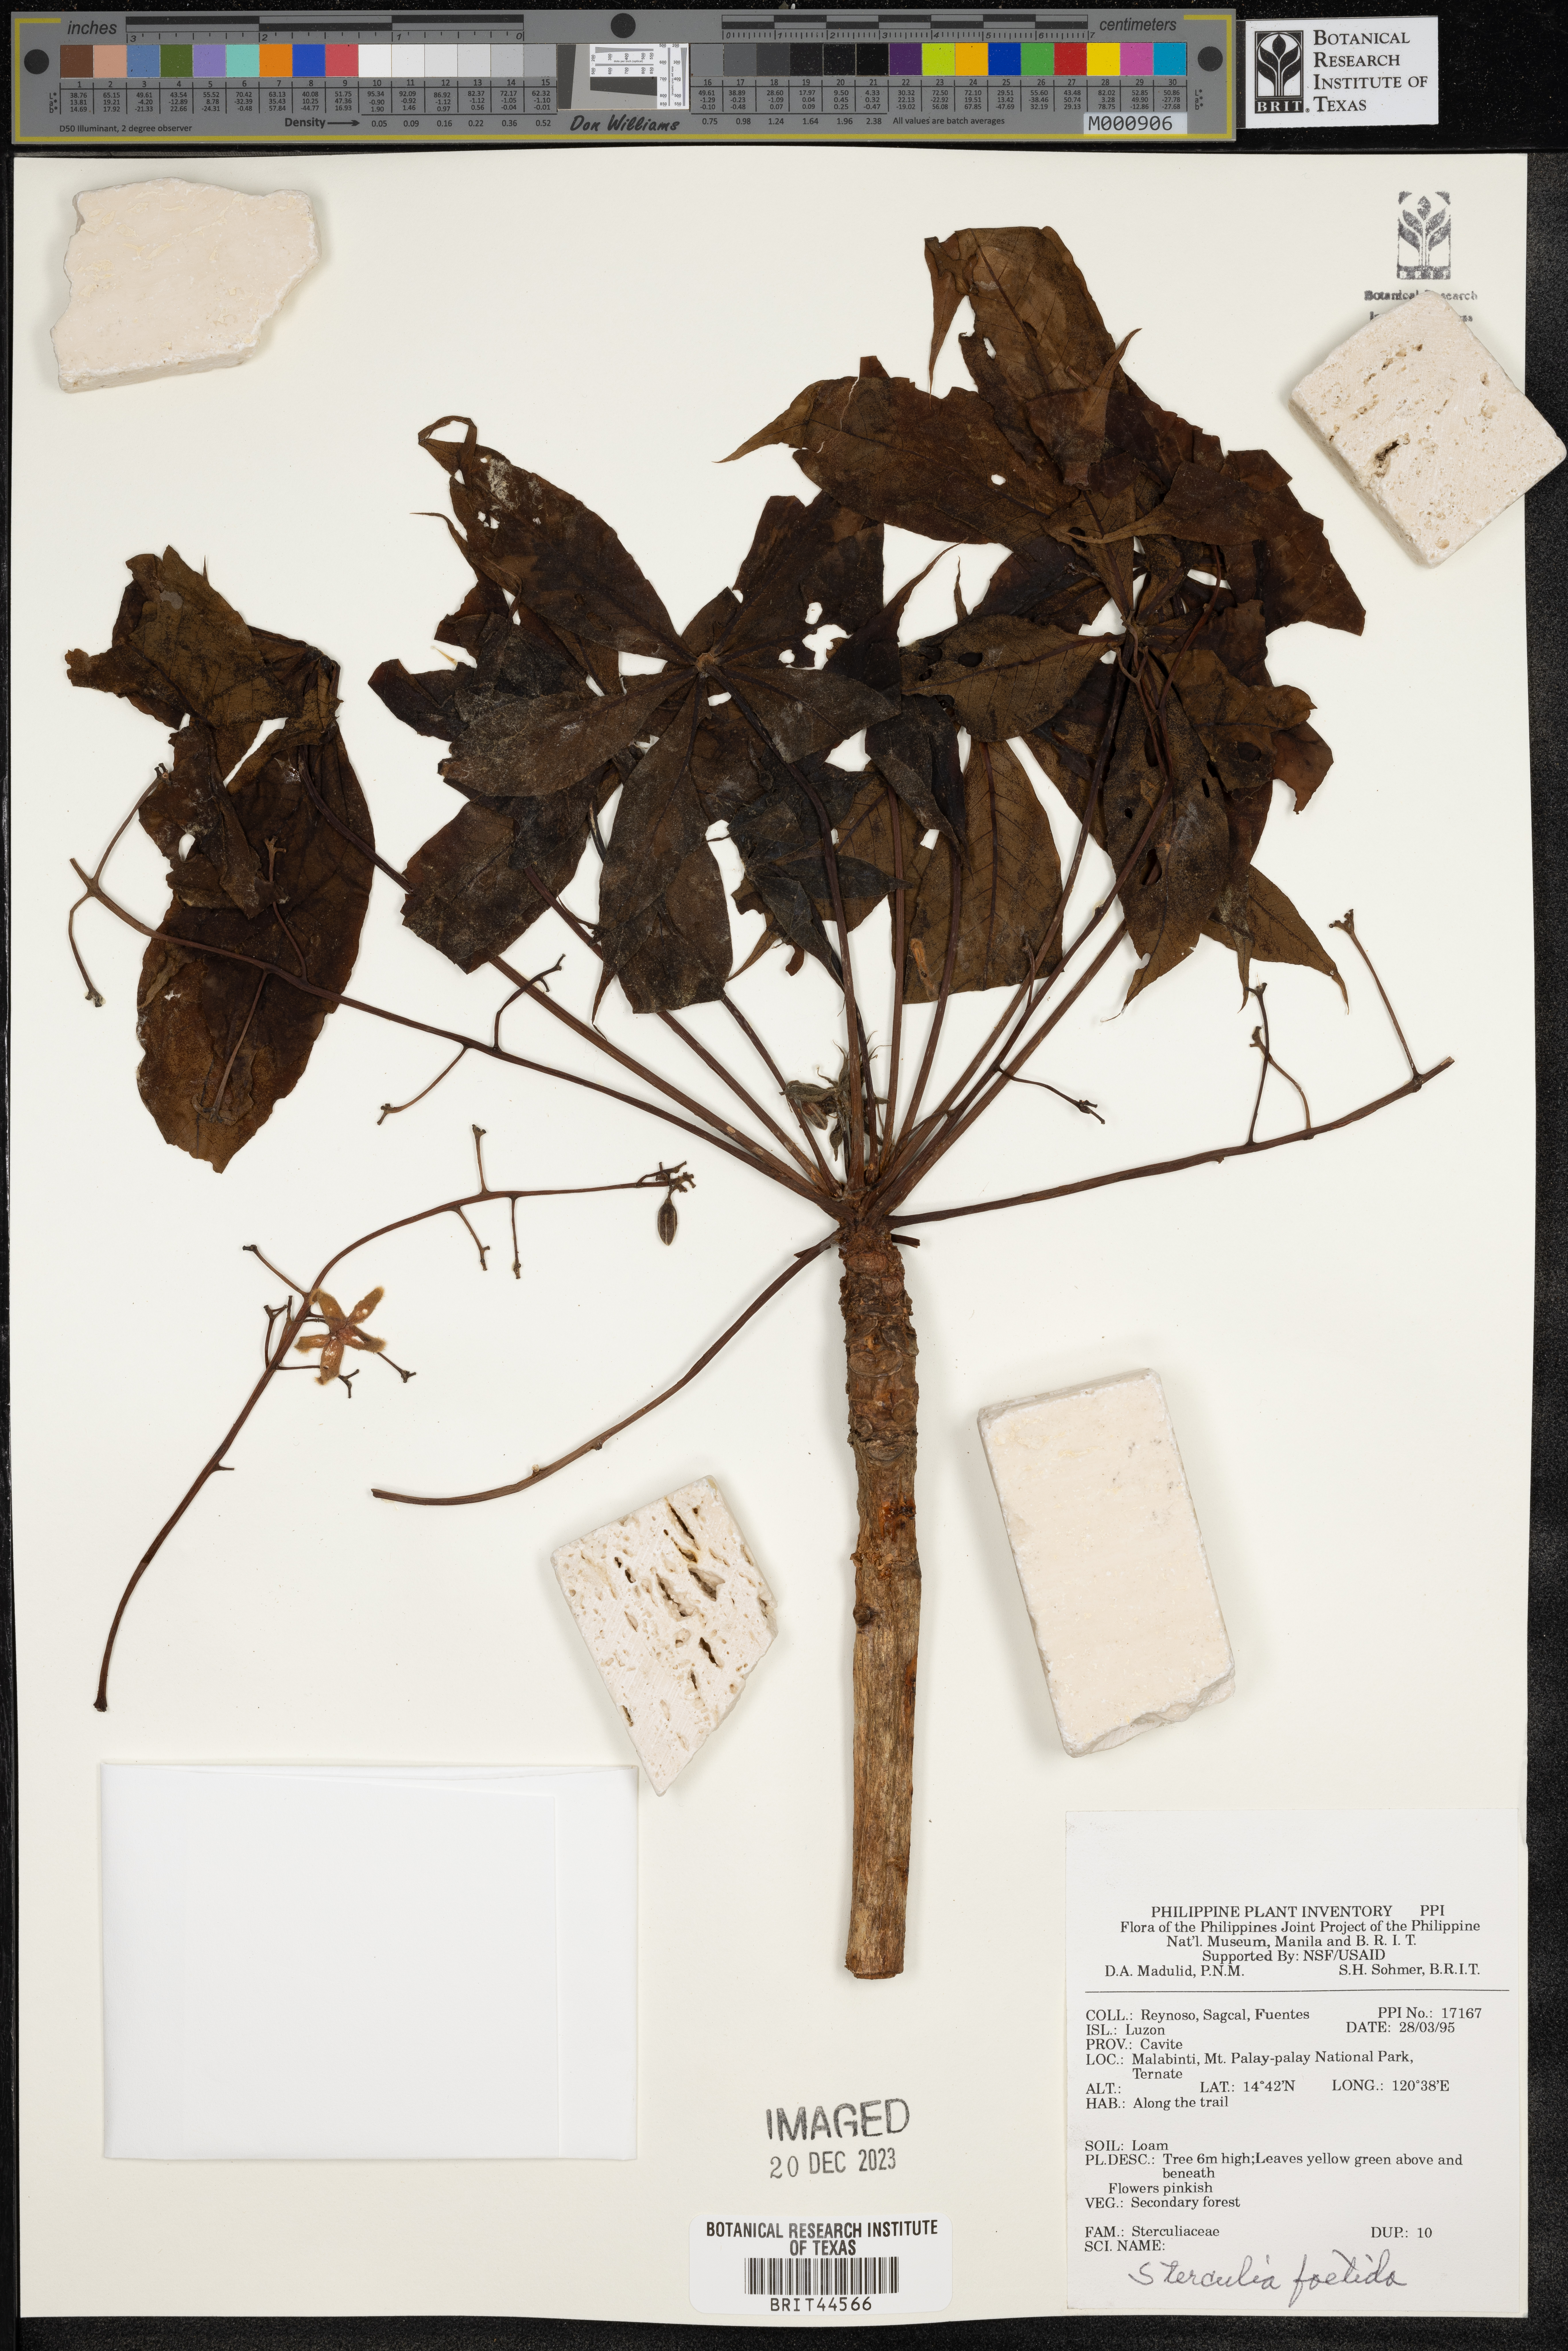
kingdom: Plantae
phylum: Tracheophyta
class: Magnoliopsida
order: Malvales
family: Malvaceae
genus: Sterculia
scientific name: Sterculia foetida
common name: Hazel sterculia
